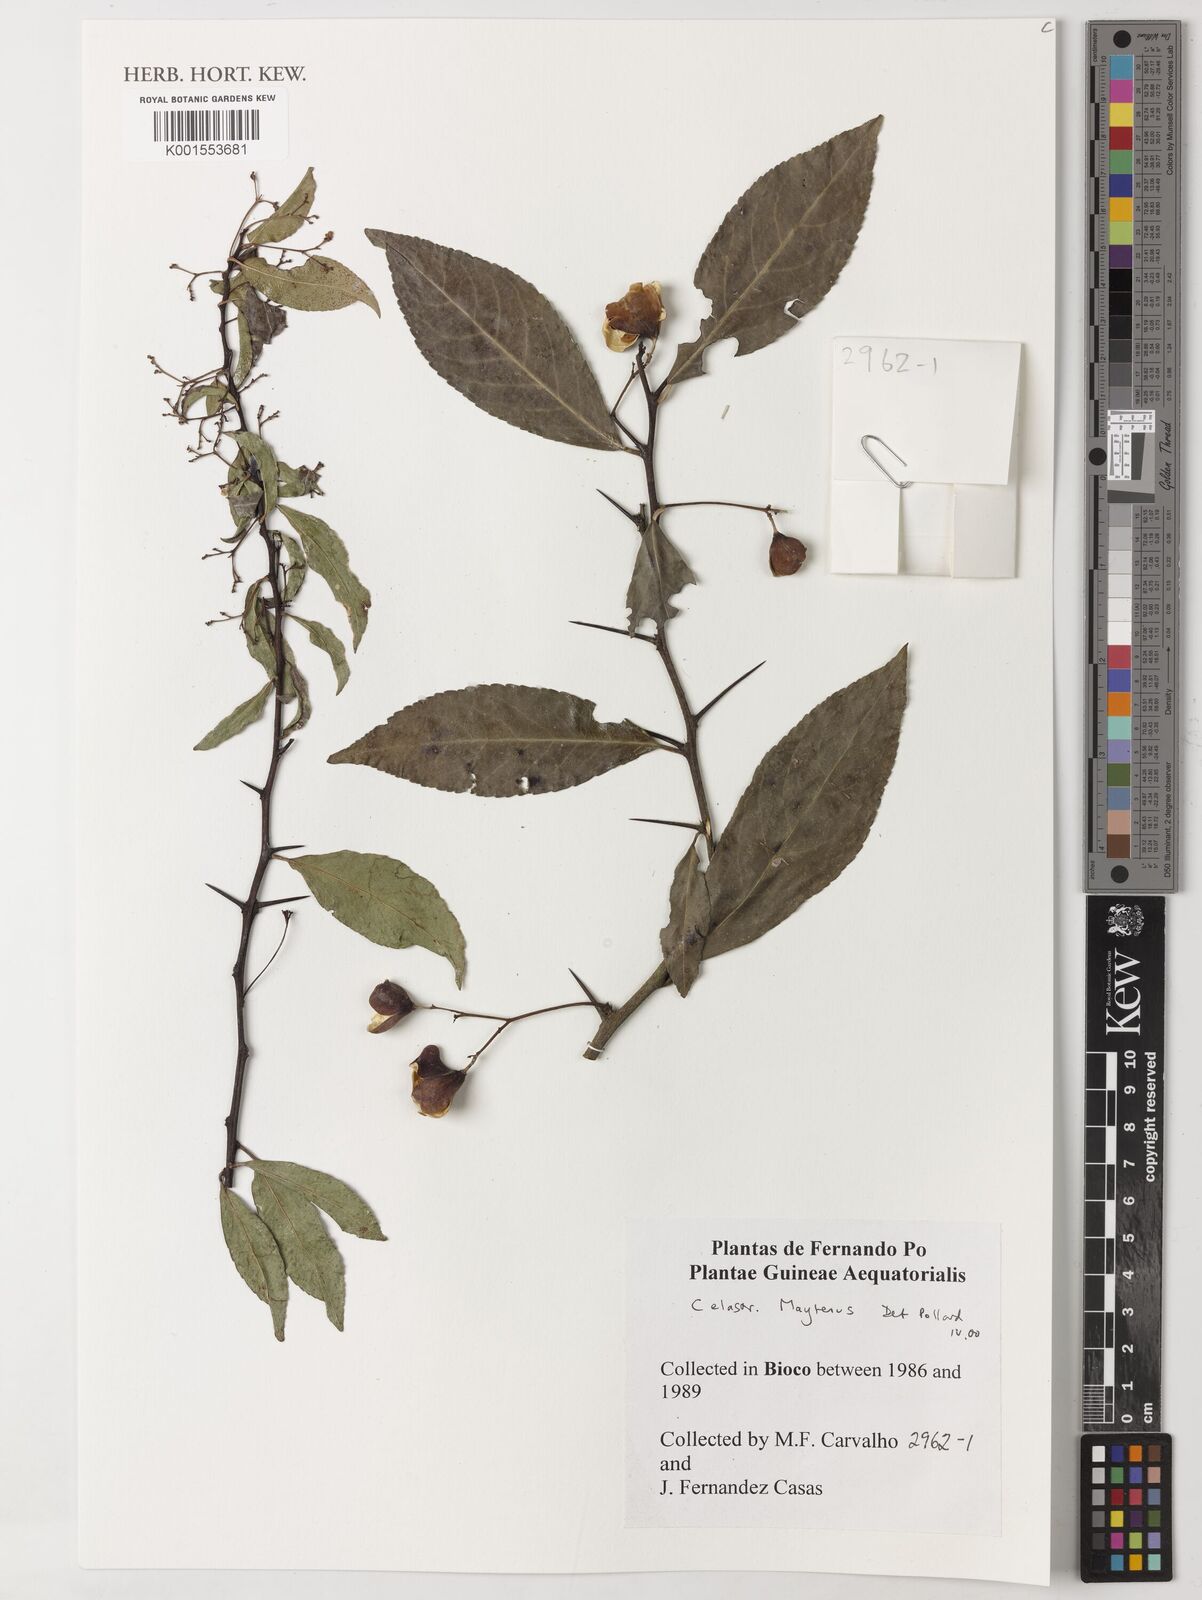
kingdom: Plantae
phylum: Tracheophyta
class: Magnoliopsida
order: Celastrales
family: Celastraceae
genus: Maytenus
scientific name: Maytenus
